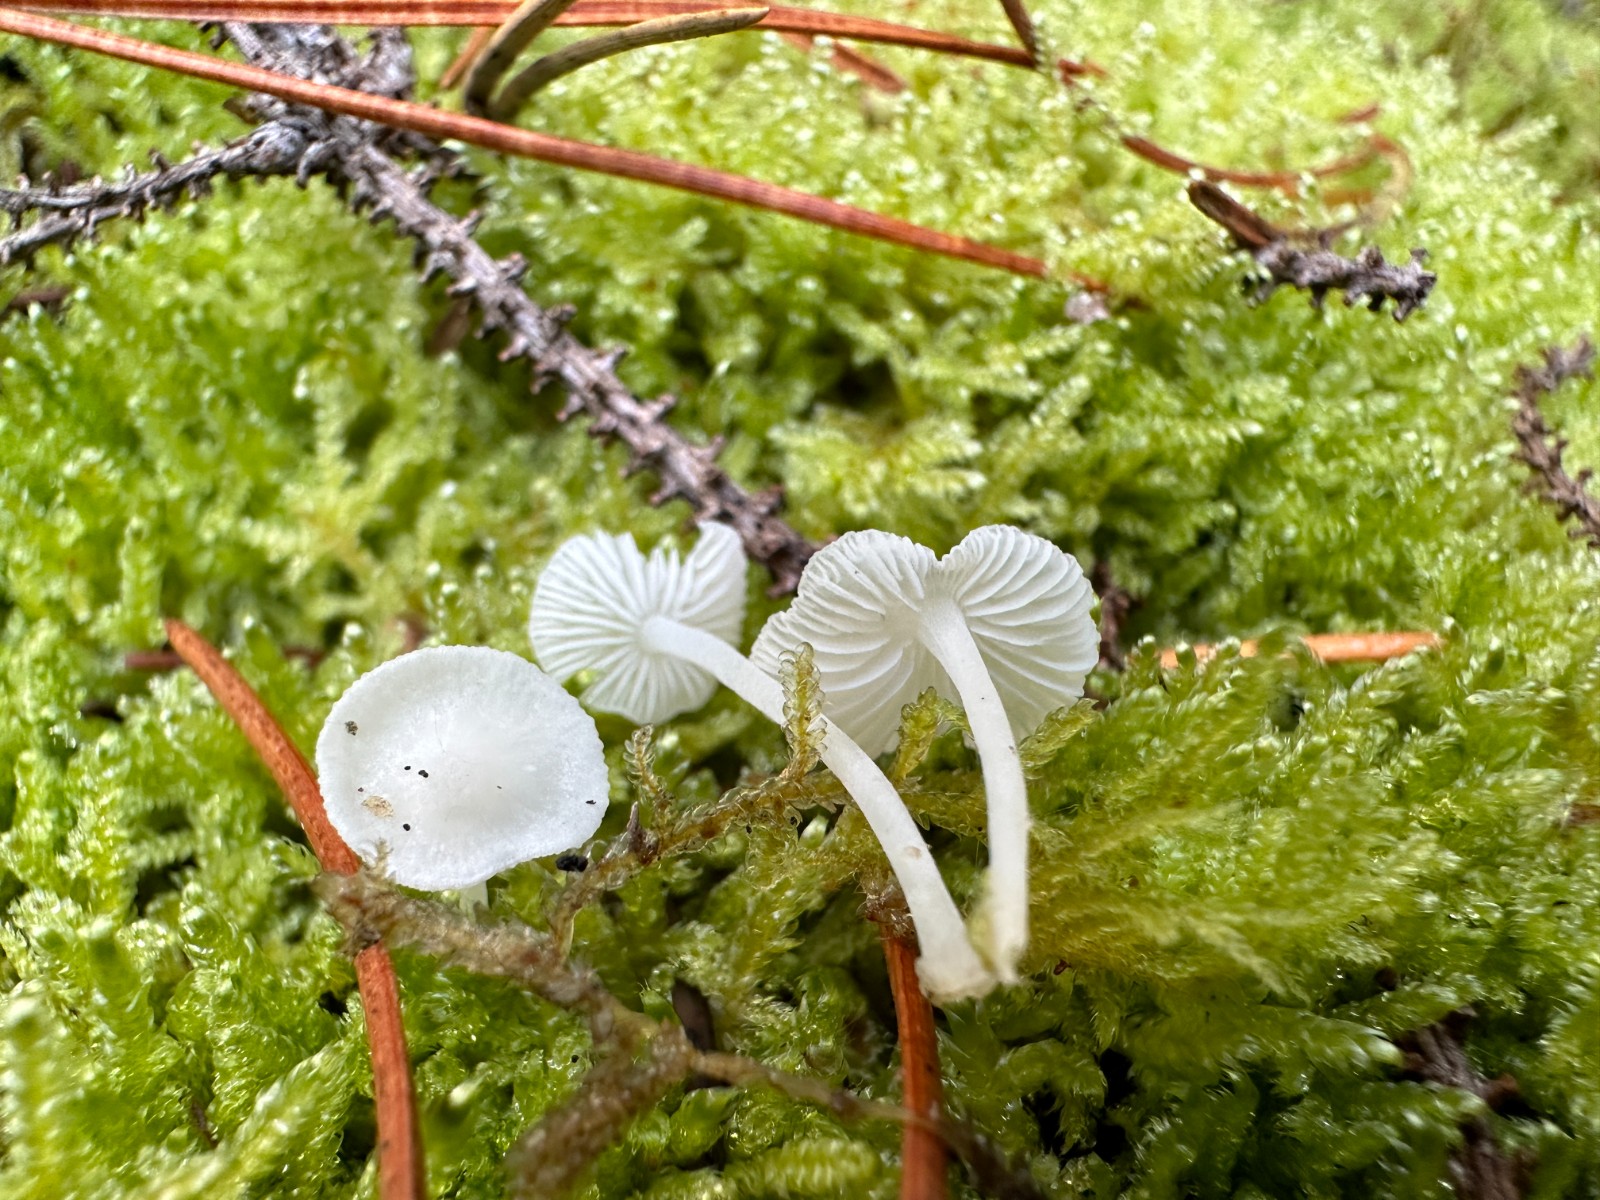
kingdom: Fungi
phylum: Basidiomycota
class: Agaricomycetes
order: Agaricales
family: Mycenaceae
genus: Hemimycena
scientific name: Hemimycena
